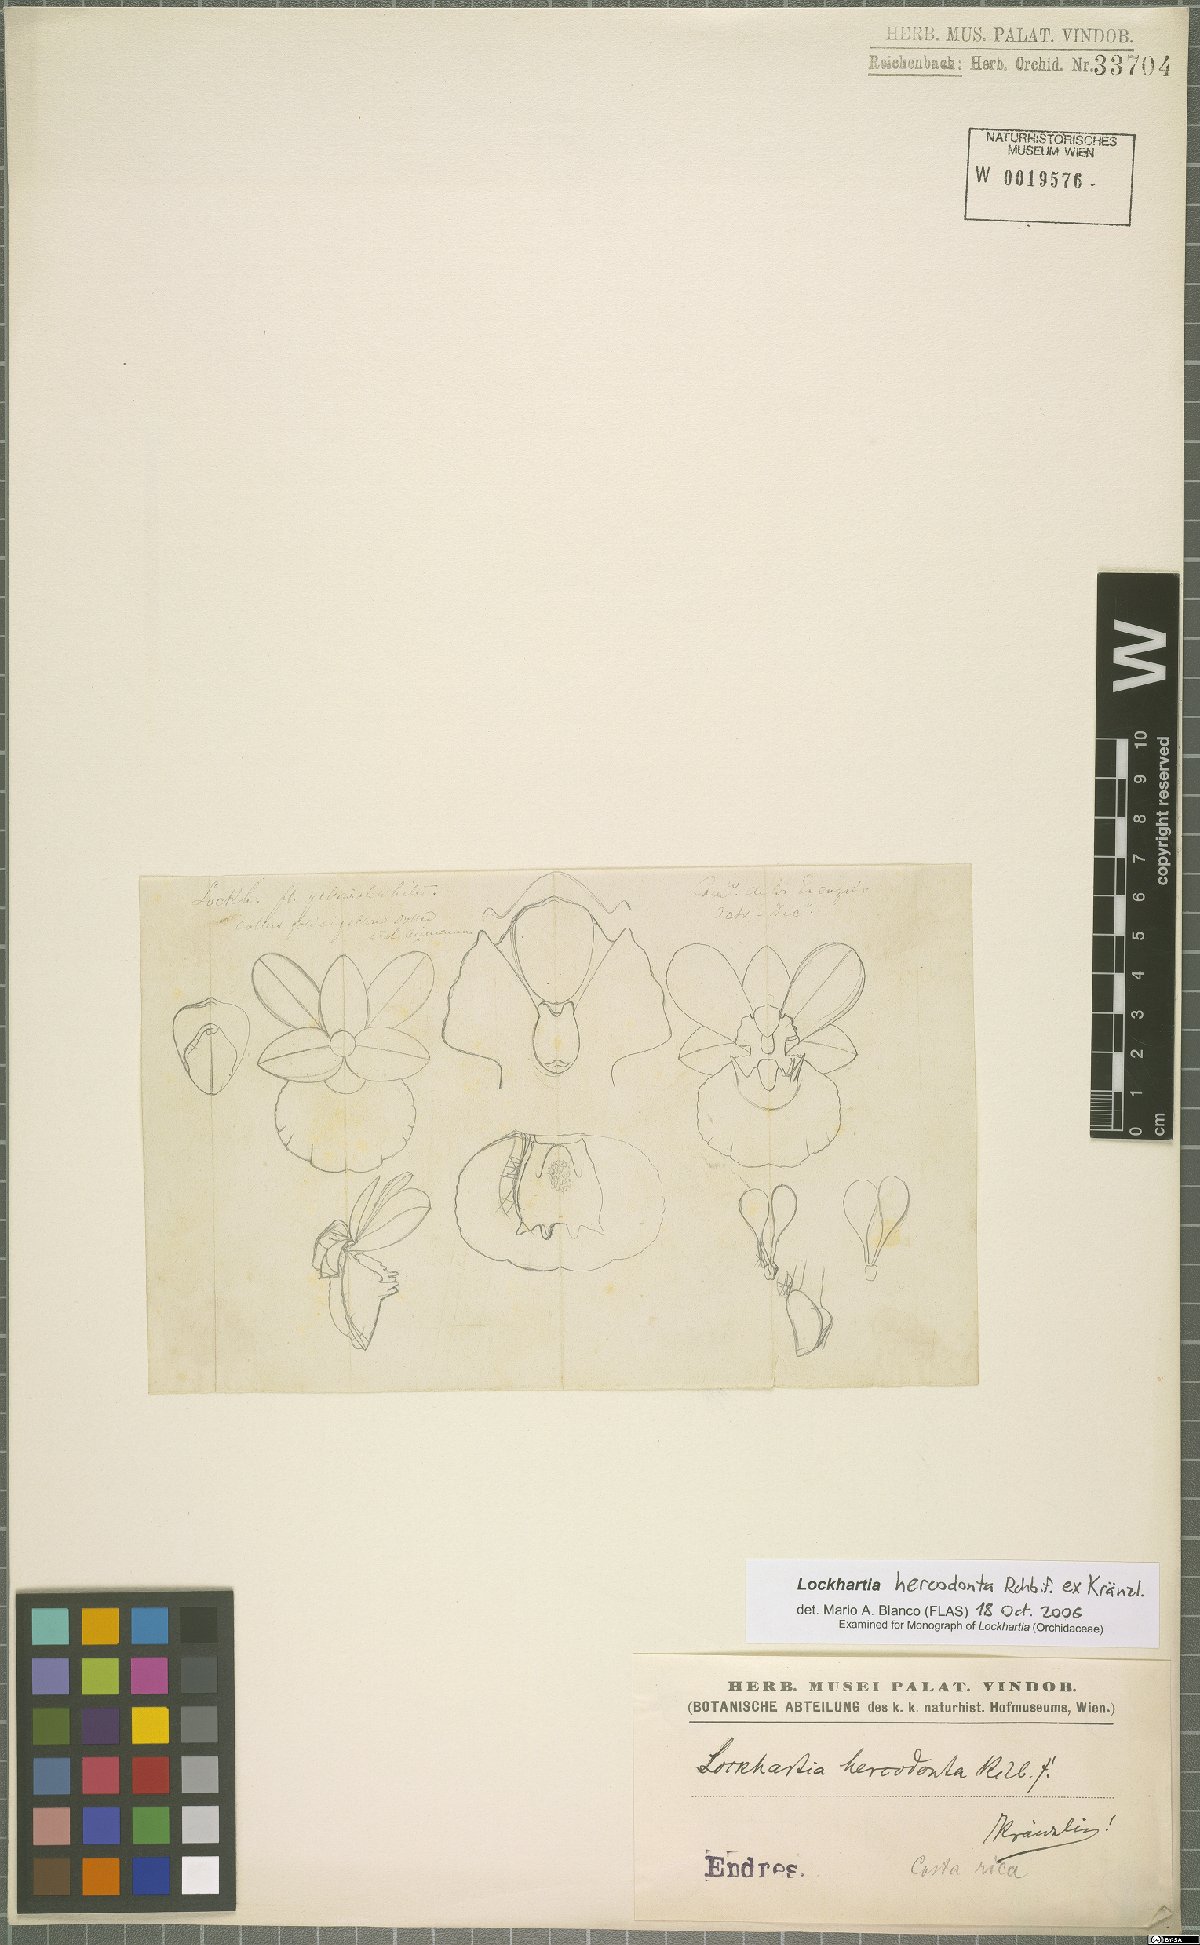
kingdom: Plantae
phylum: Tracheophyta
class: Liliopsida
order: Asparagales
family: Orchidaceae
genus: Lockhartia
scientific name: Lockhartia hercodonta
